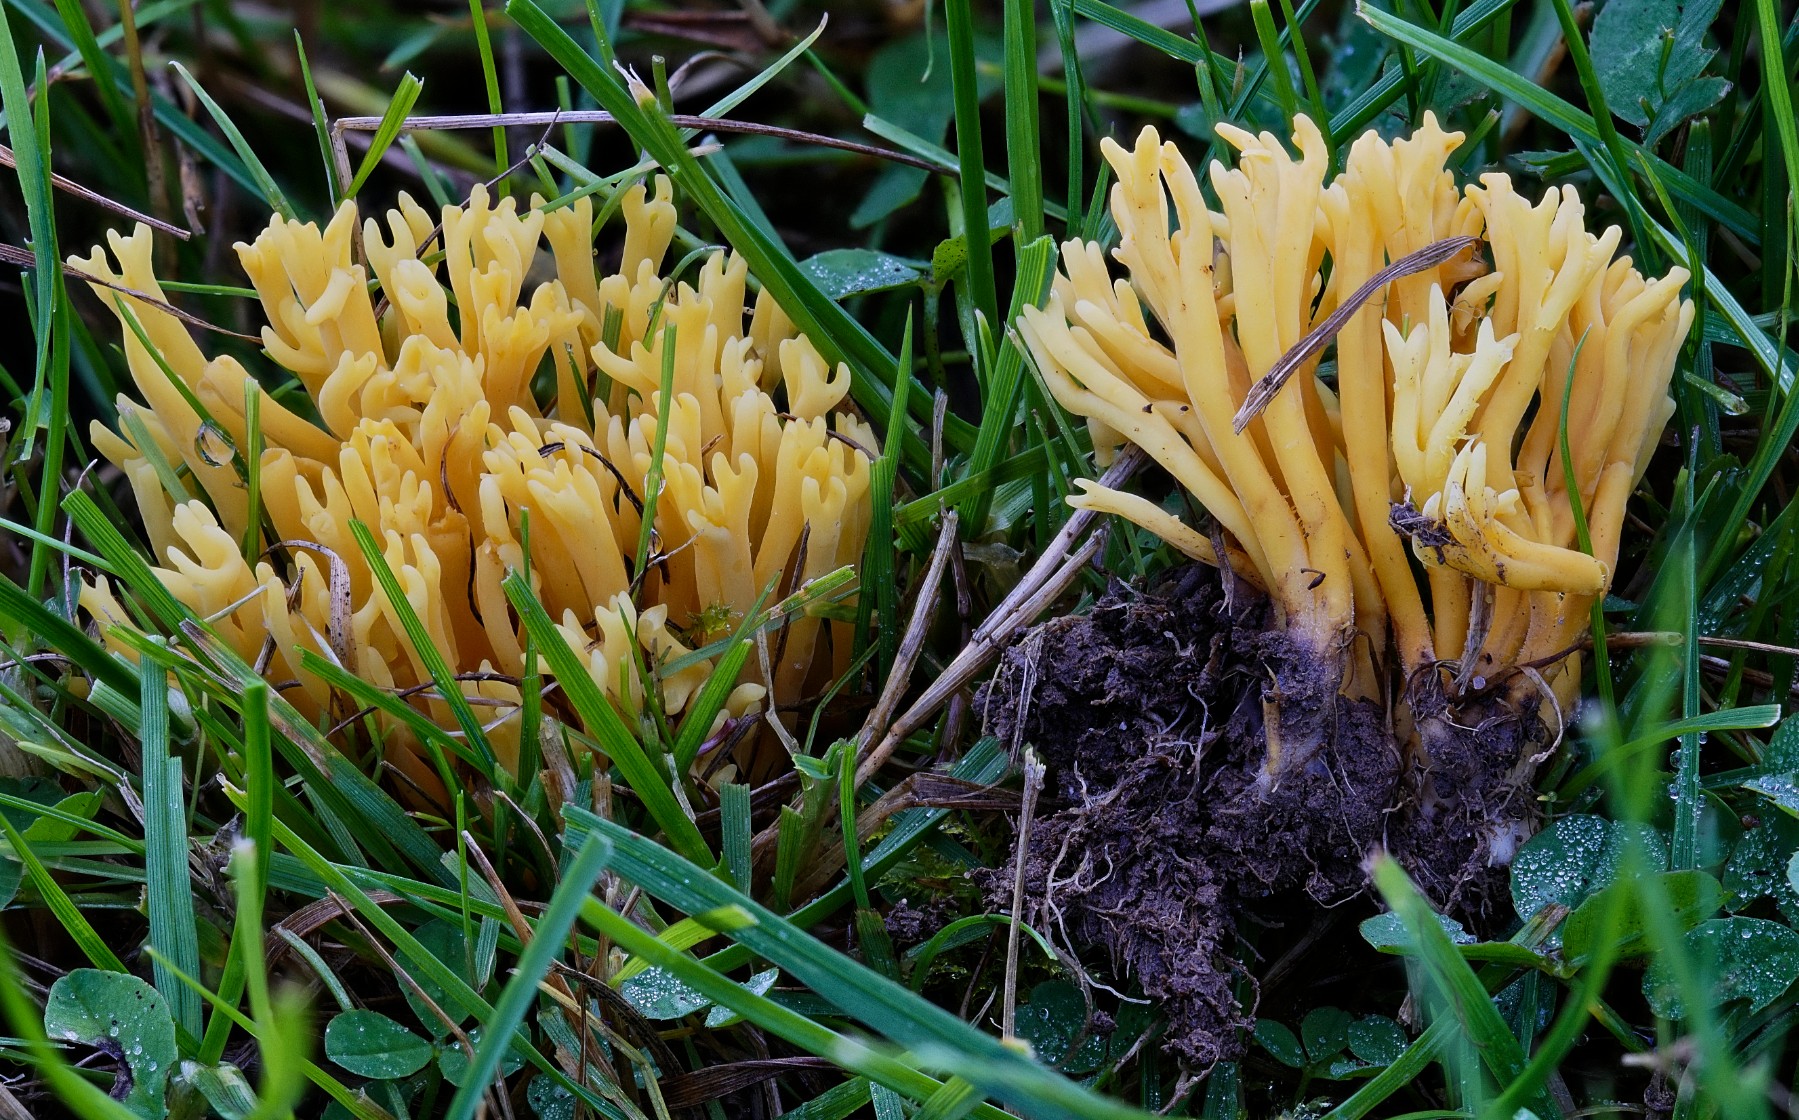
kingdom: Fungi
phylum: Basidiomycota
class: Agaricomycetes
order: Agaricales
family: Clavariaceae
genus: Clavulinopsis
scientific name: Clavulinopsis corniculata
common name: eng-køllesvamp
